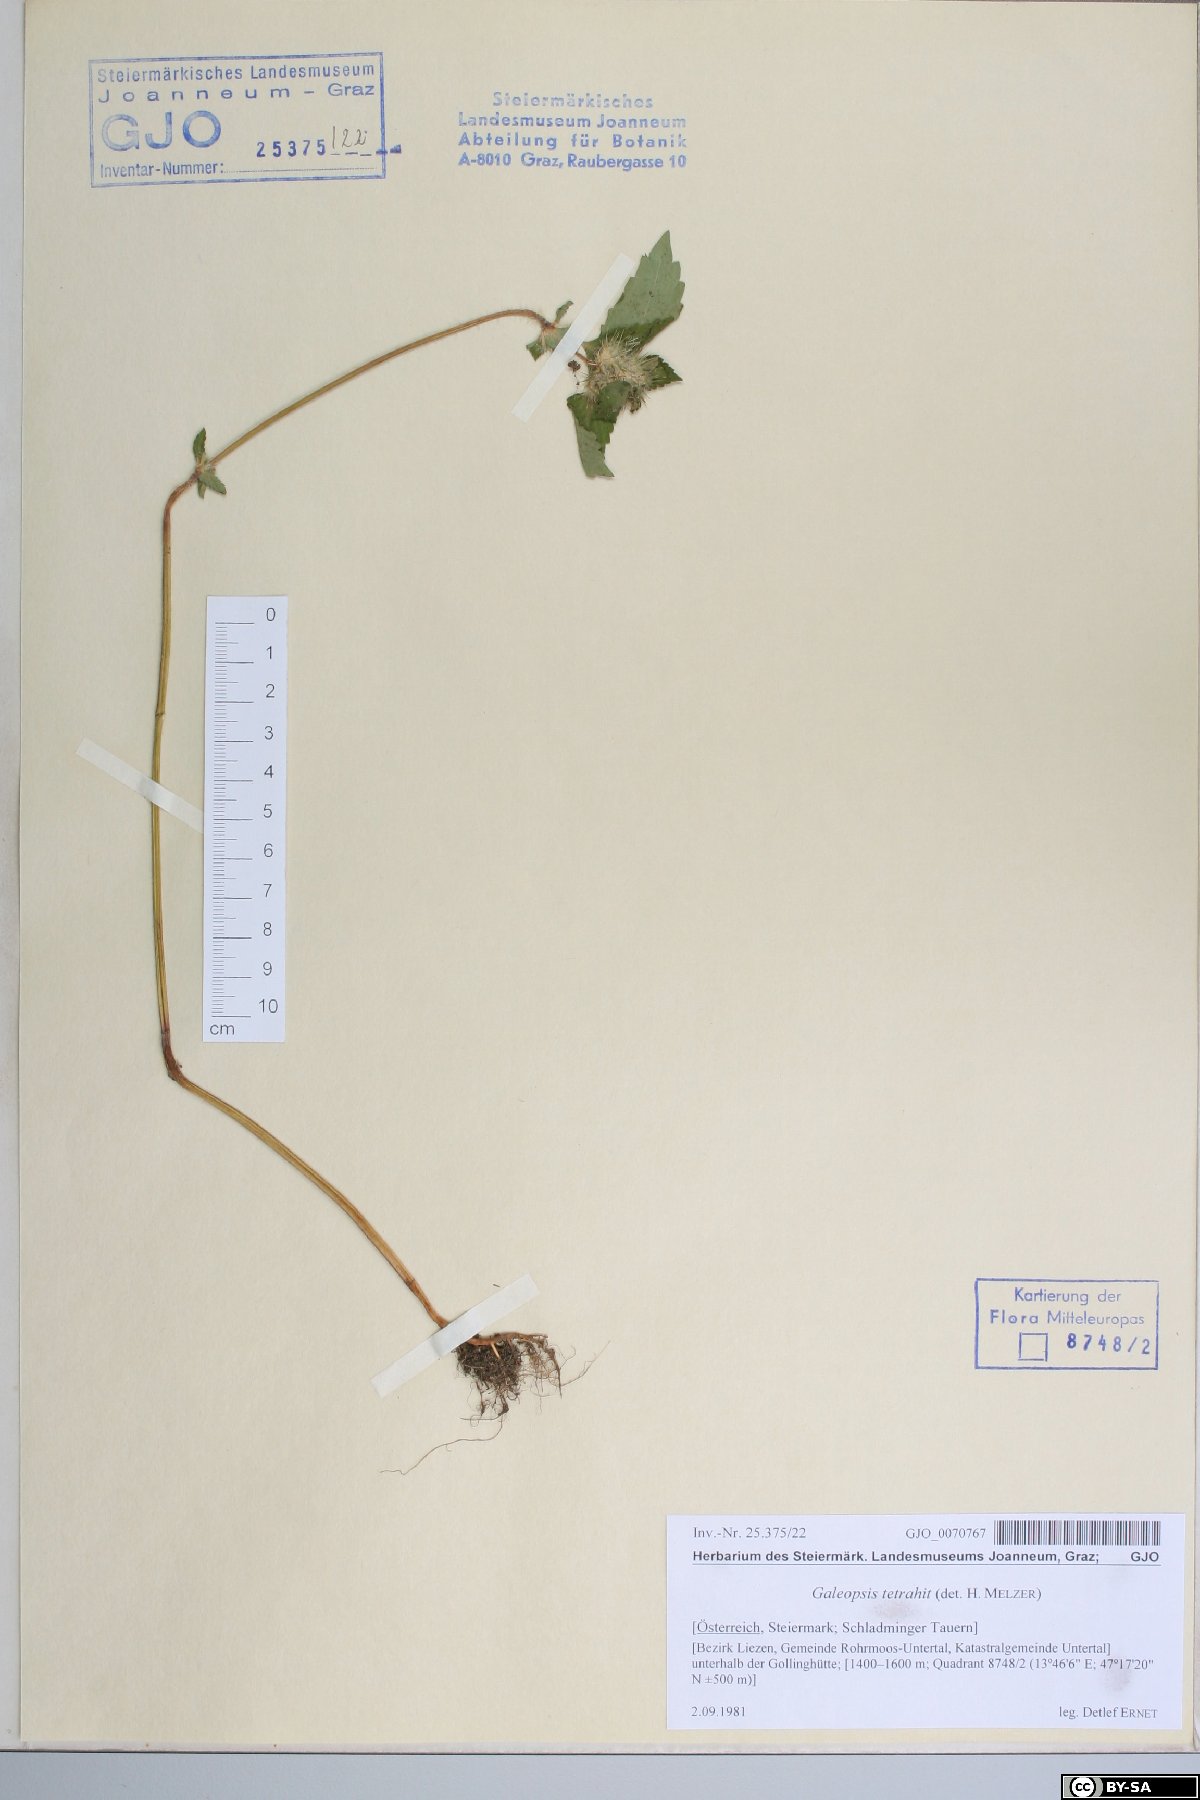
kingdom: Plantae
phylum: Tracheophyta
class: Magnoliopsida
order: Lamiales
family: Lamiaceae
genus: Galeopsis
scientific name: Galeopsis tetrahit
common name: Common hemp-nettle
